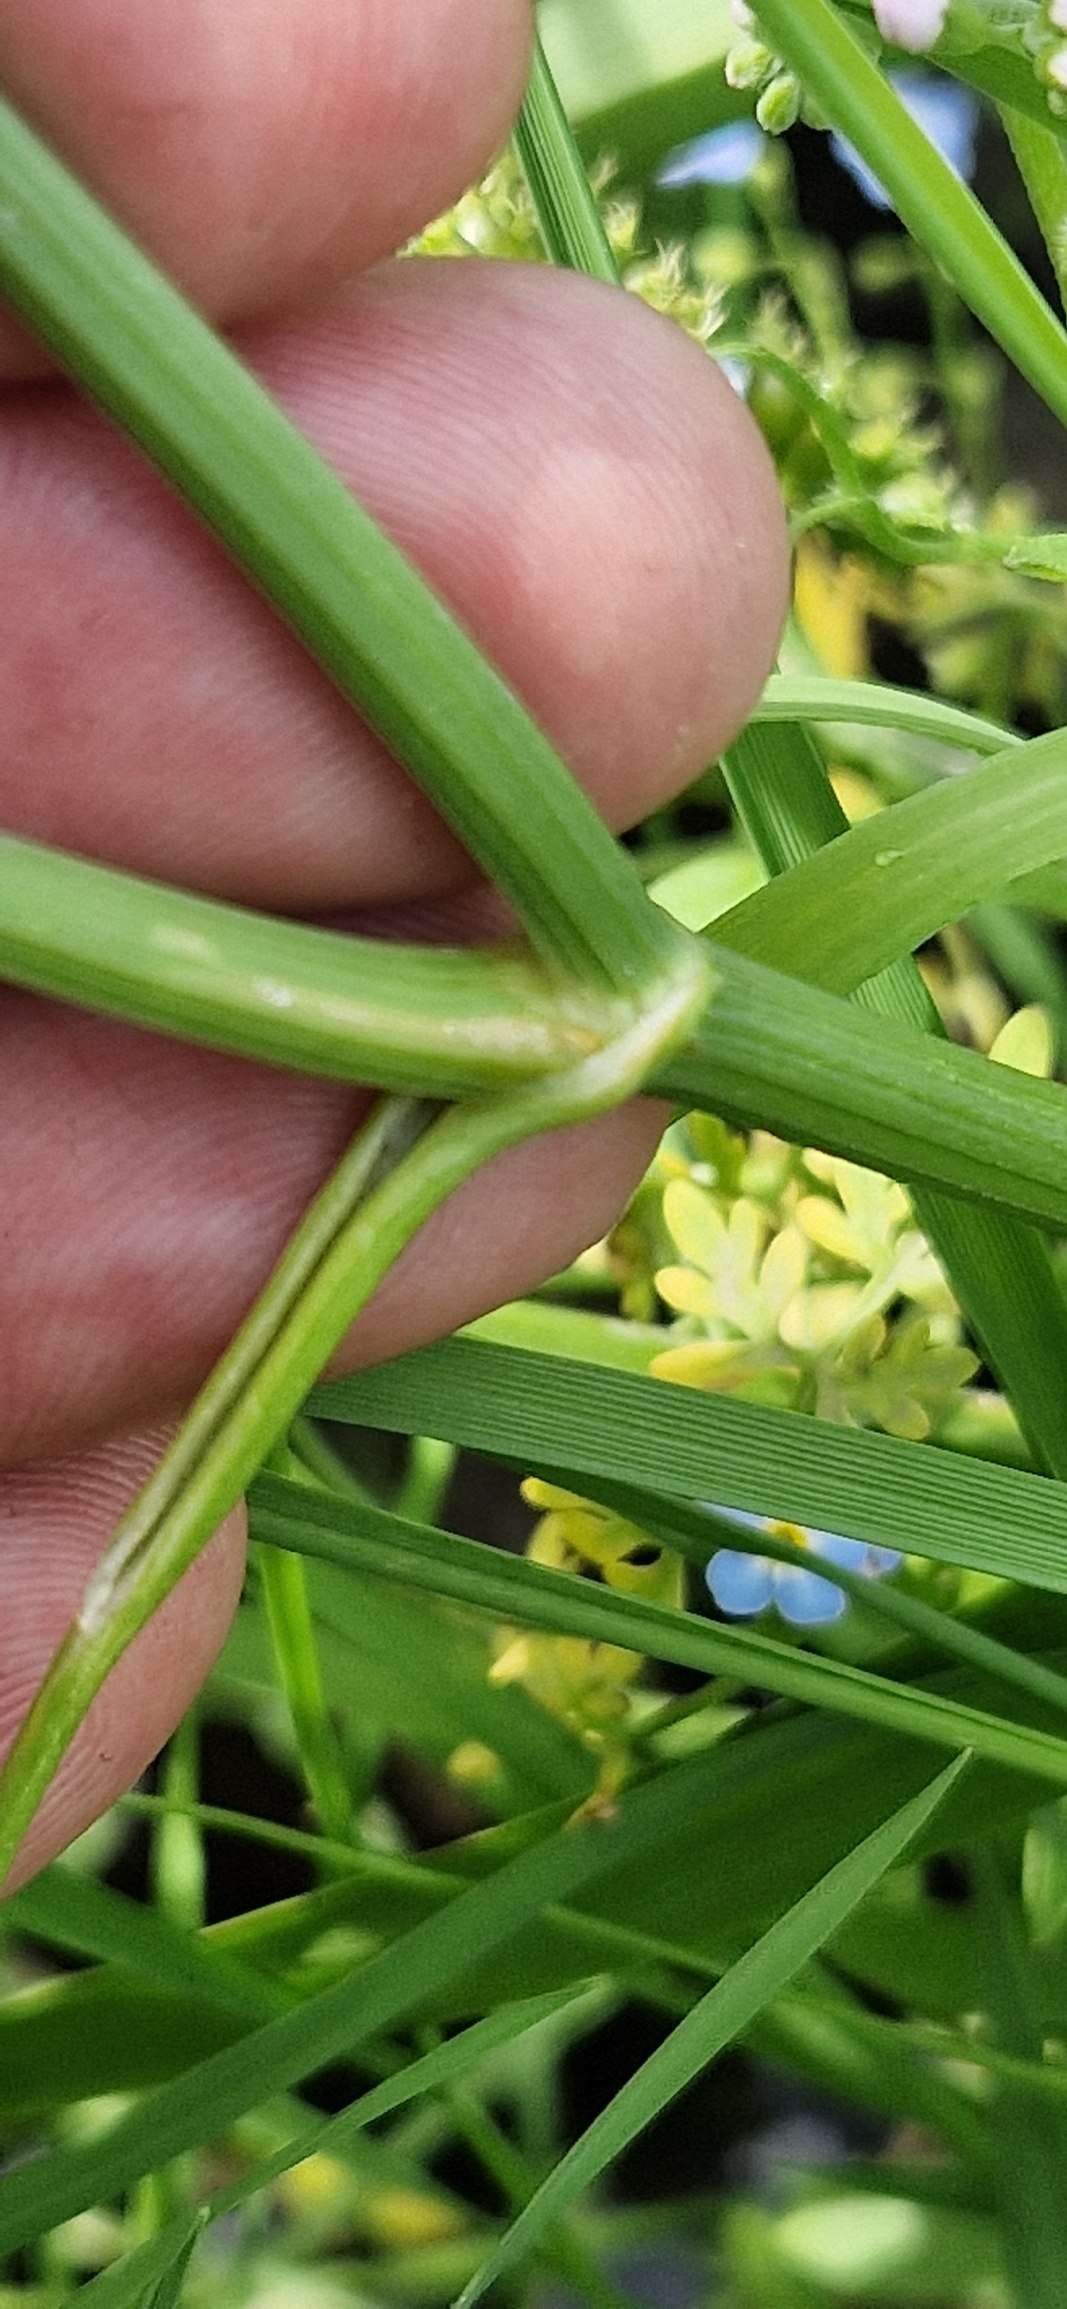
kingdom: Plantae
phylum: Tracheophyta
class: Magnoliopsida
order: Apiales
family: Apiaceae
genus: Oenanthe
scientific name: Oenanthe aquatica
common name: Billebo-klaseskærm
